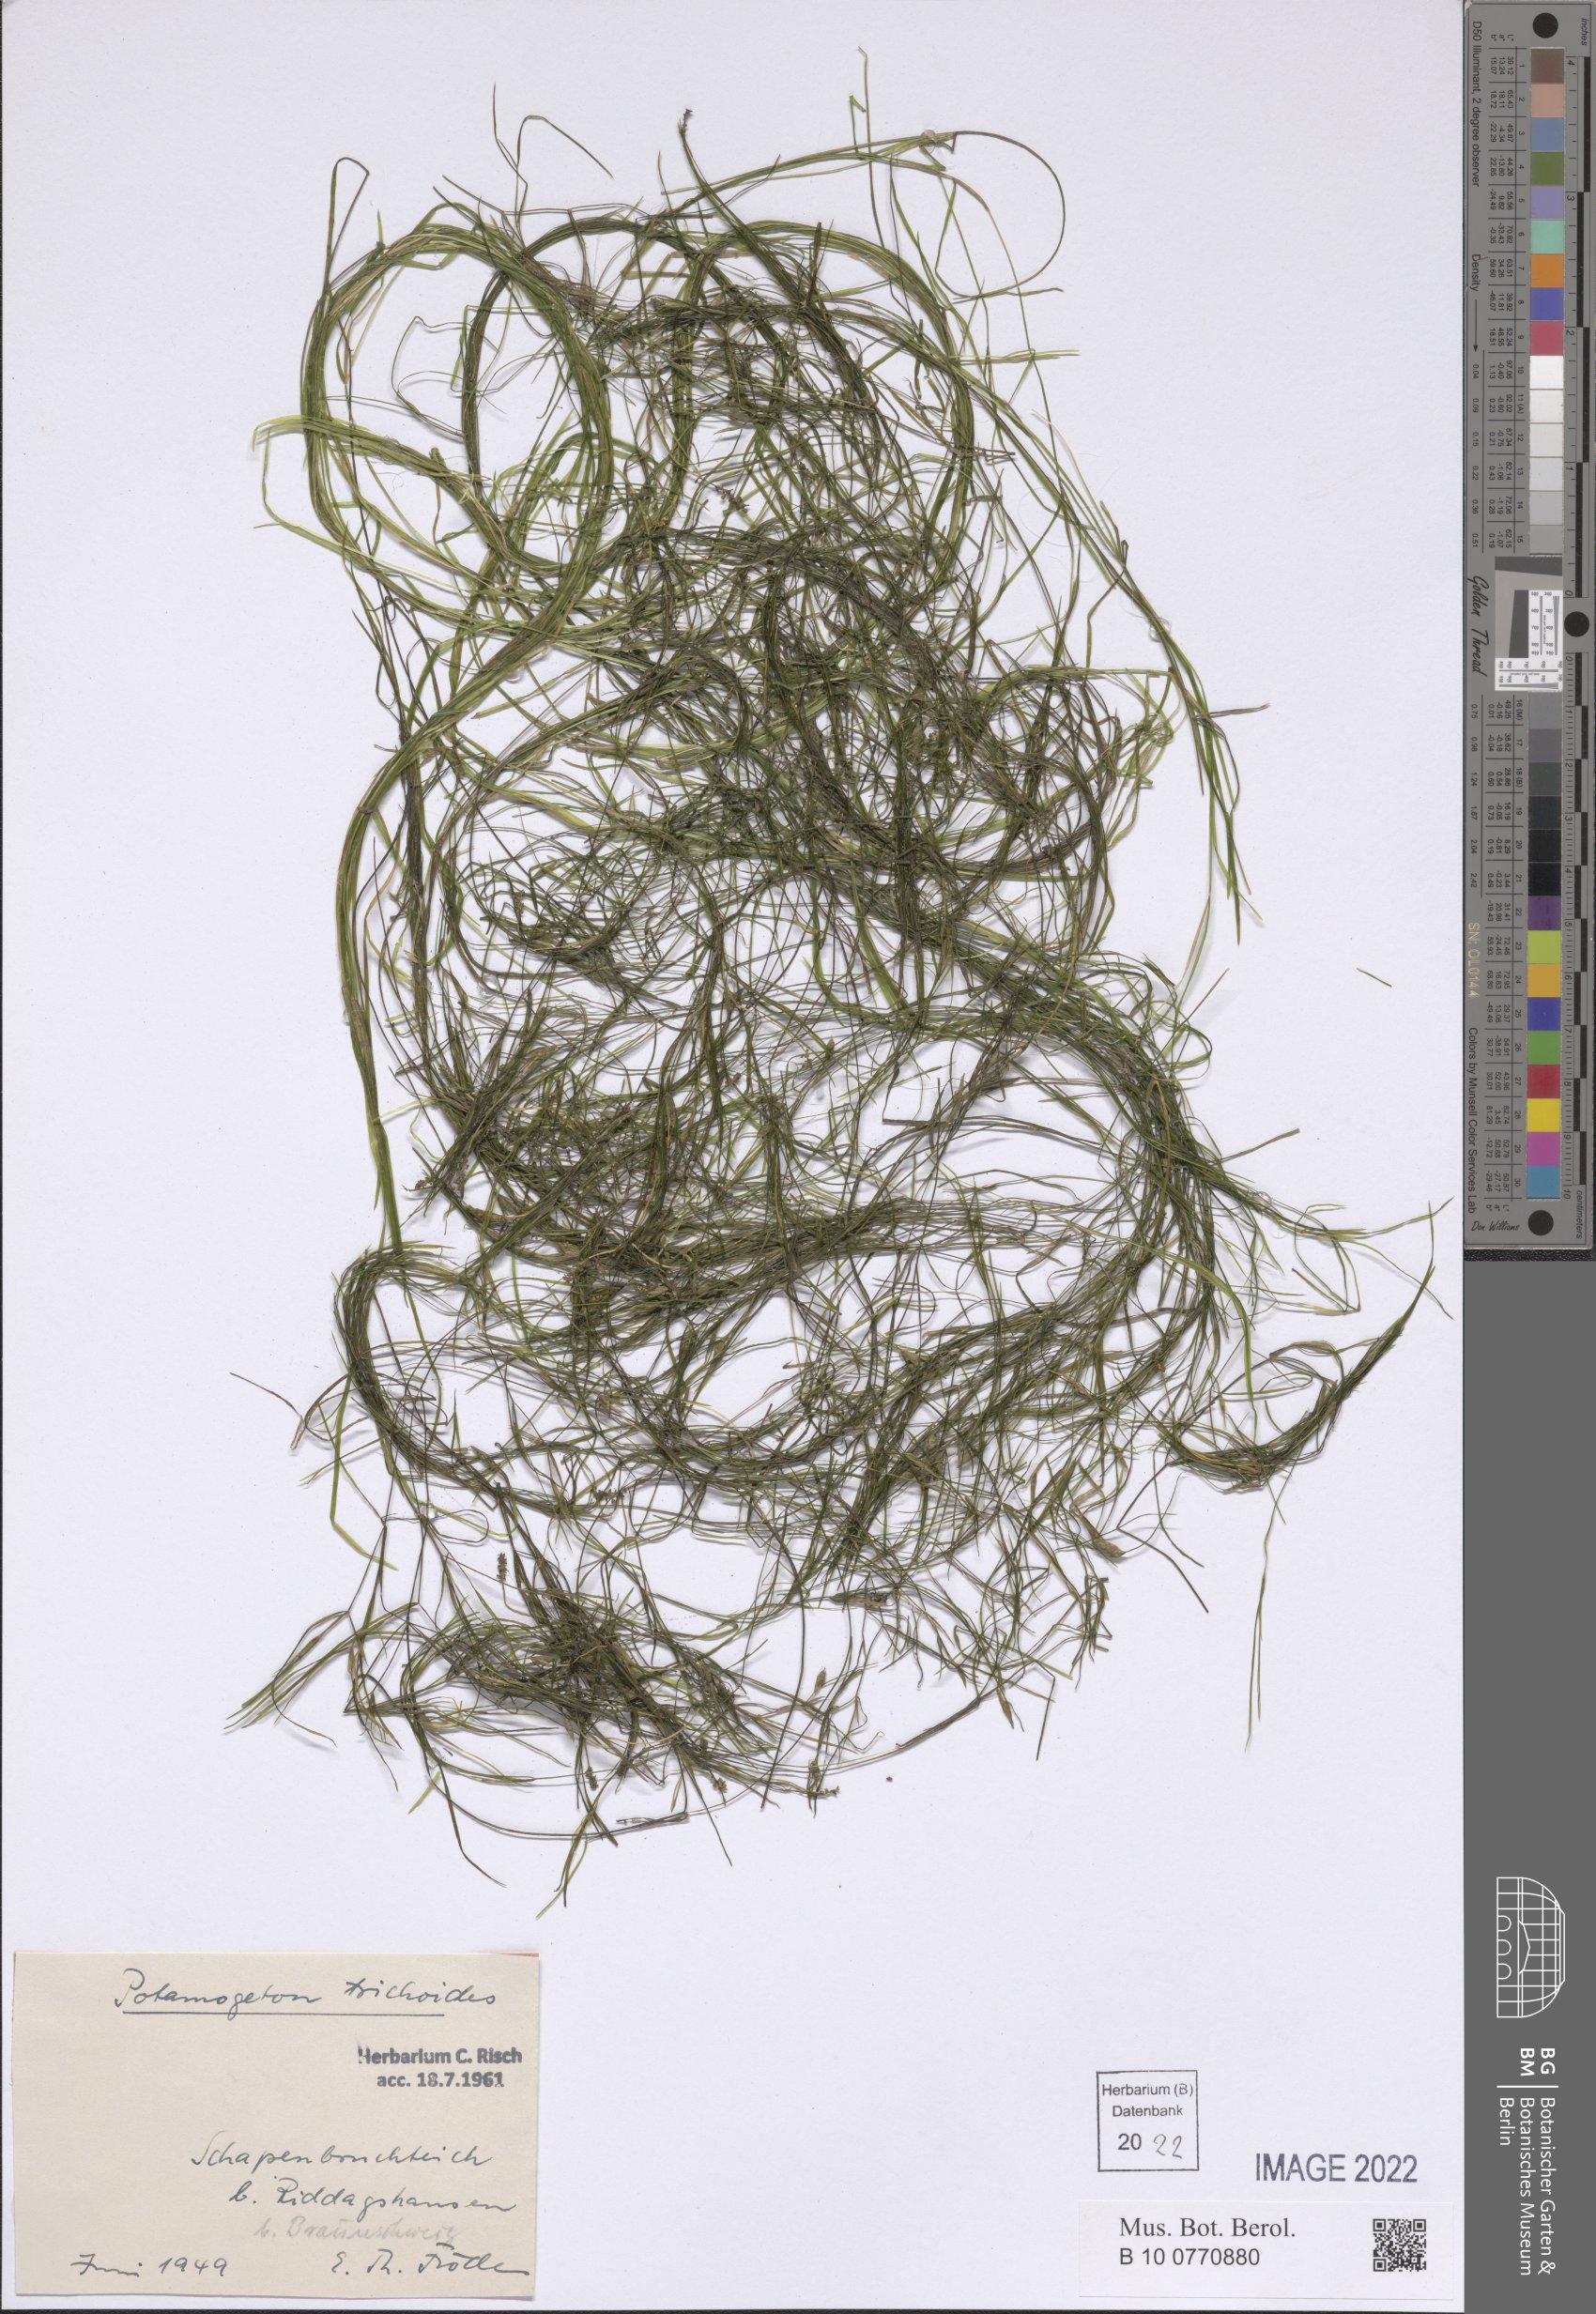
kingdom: Plantae
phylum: Tracheophyta
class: Liliopsida
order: Alismatales
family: Potamogetonaceae
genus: Potamogeton
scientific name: Potamogeton trichoides
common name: Hairlike pondweed
